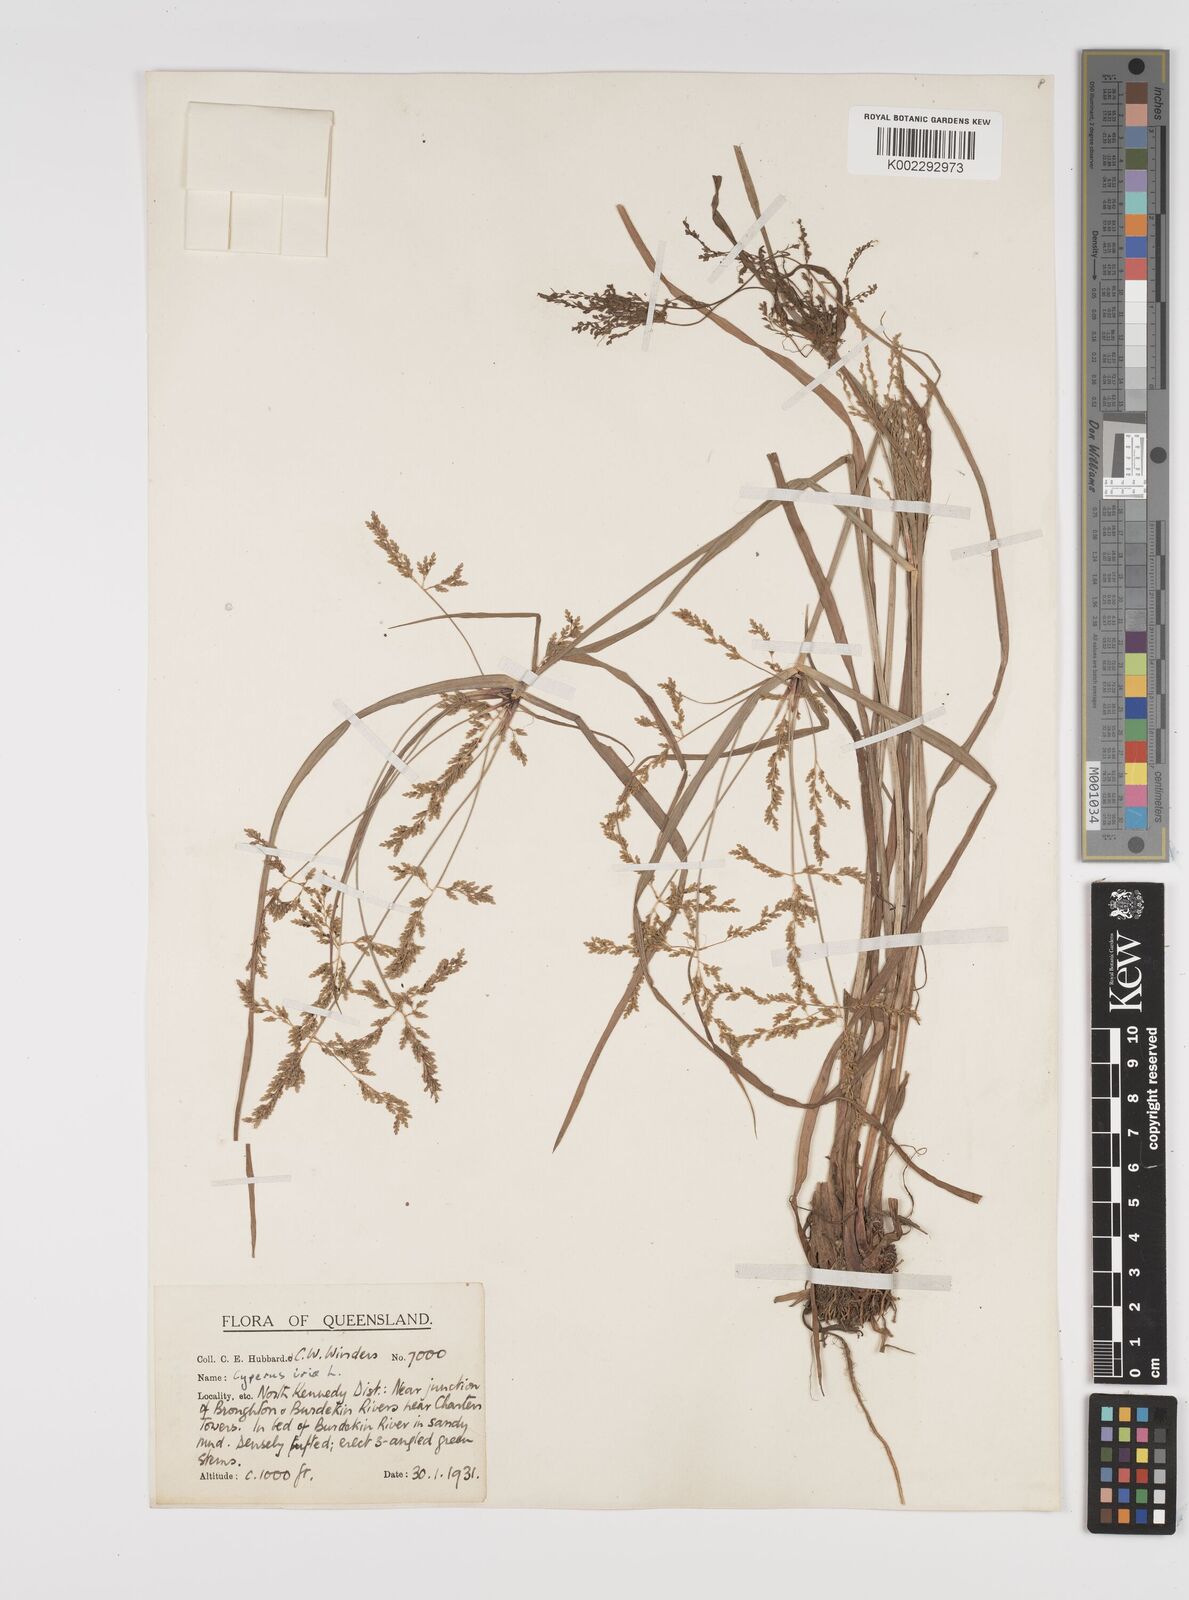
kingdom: Plantae
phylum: Tracheophyta
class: Liliopsida
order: Poales
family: Cyperaceae
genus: Cyperus
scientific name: Cyperus iria
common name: Ricefield flatsedge
